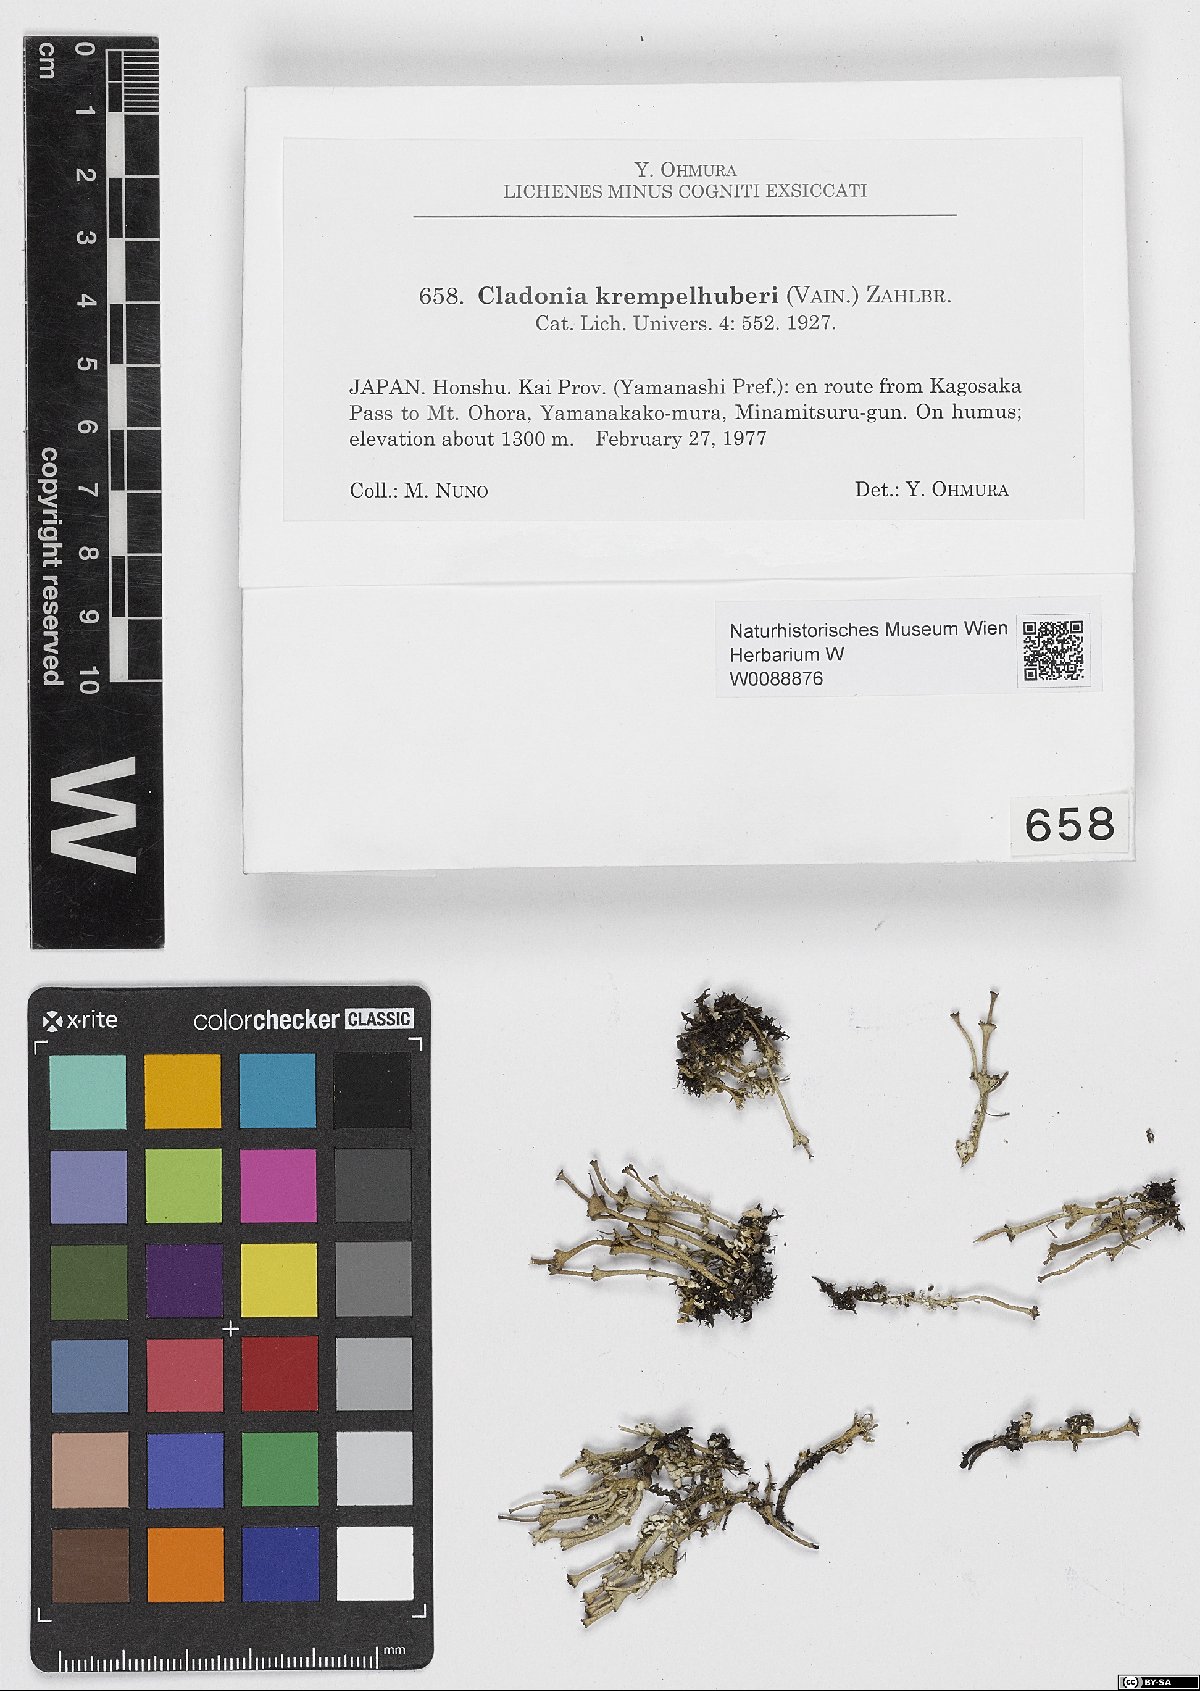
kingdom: Fungi
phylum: Ascomycota
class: Lecanoromycetes
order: Lecanorales
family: Cladoniaceae
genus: Cladonia
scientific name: Cladonia krempelhuberi
